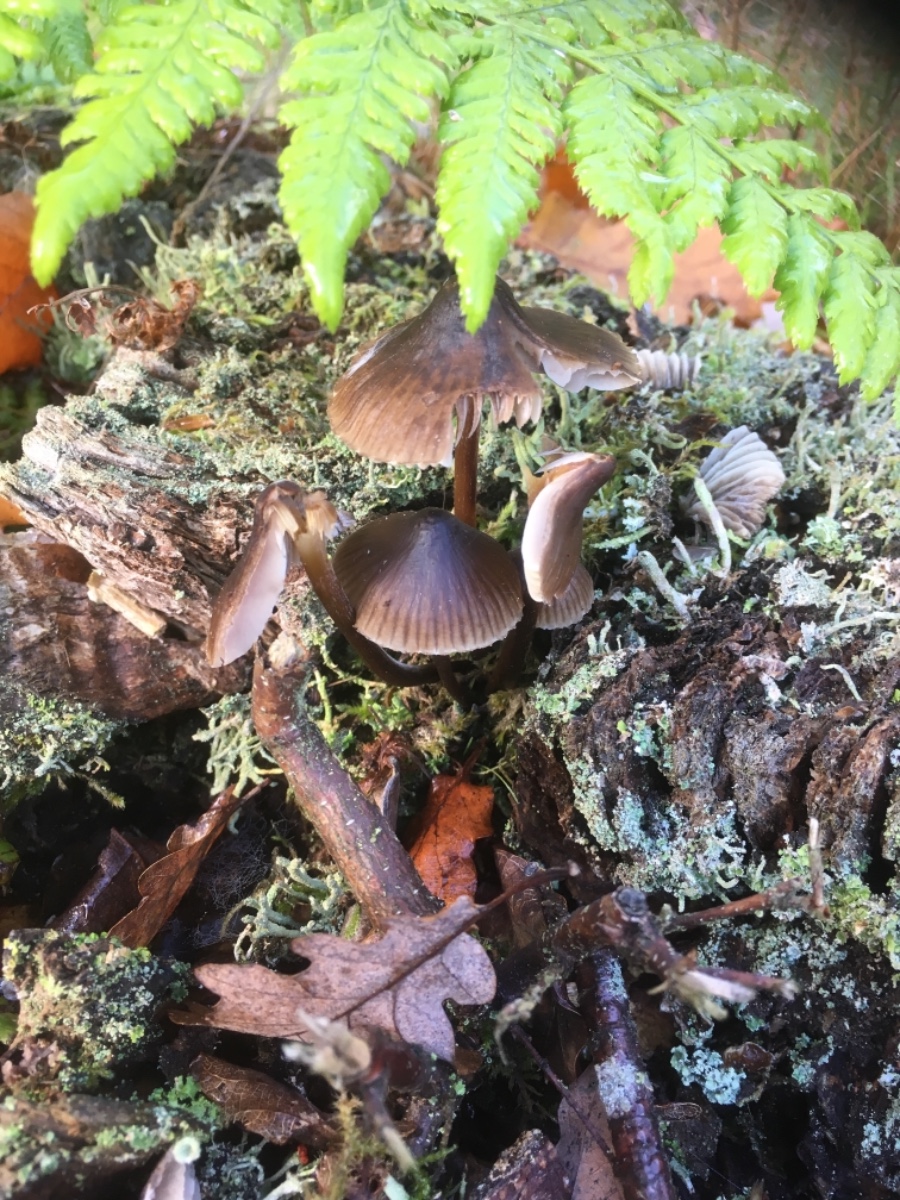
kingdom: Fungi
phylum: Basidiomycota
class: Agaricomycetes
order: Agaricales
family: Mycenaceae
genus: Mycena
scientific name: Mycena inclinata
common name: nikkende huesvamp
